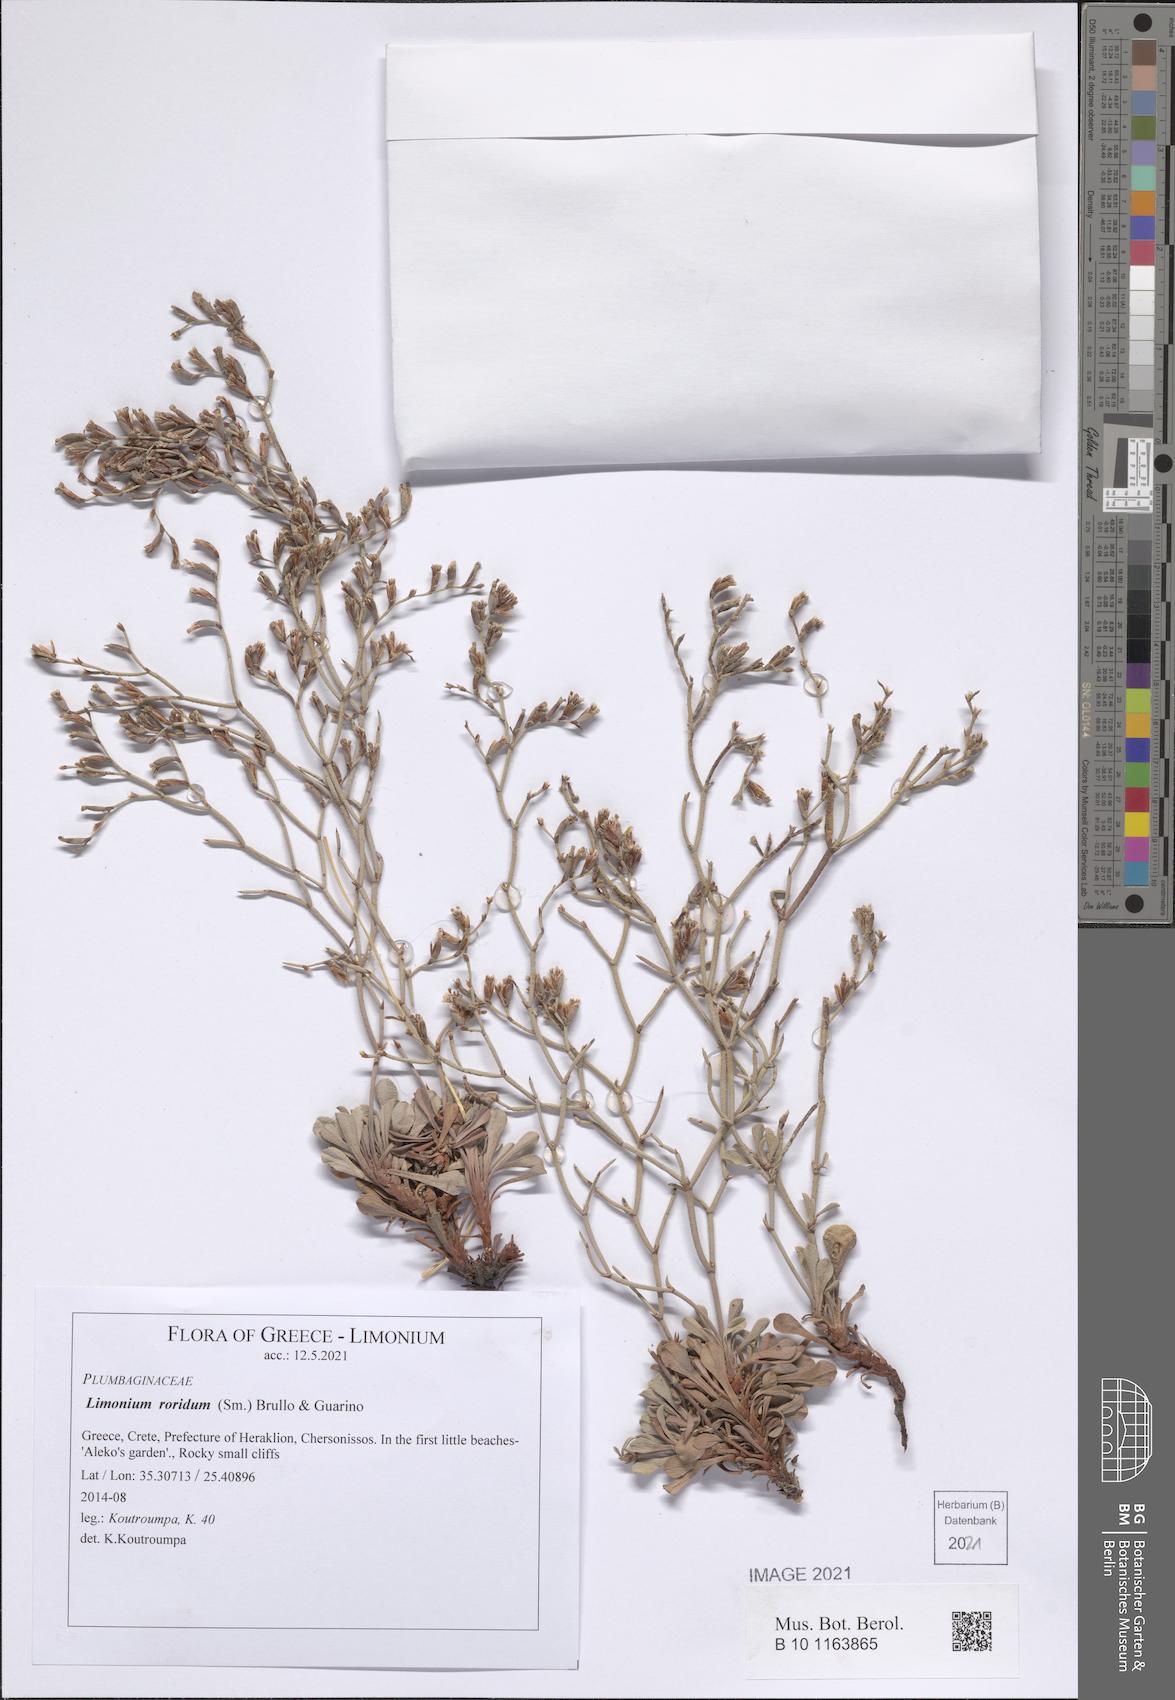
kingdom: Plantae
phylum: Tracheophyta
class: Magnoliopsida
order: Caryophyllales
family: Plumbaginaceae
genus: Limonium
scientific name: Limonium roridum
